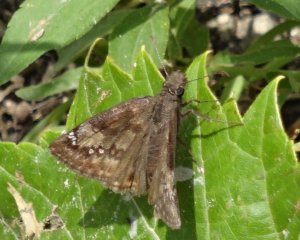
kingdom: Animalia
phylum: Arthropoda
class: Insecta
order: Lepidoptera
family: Hesperiidae
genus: Gesta
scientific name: Gesta
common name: Wild Indigo Duskywing
